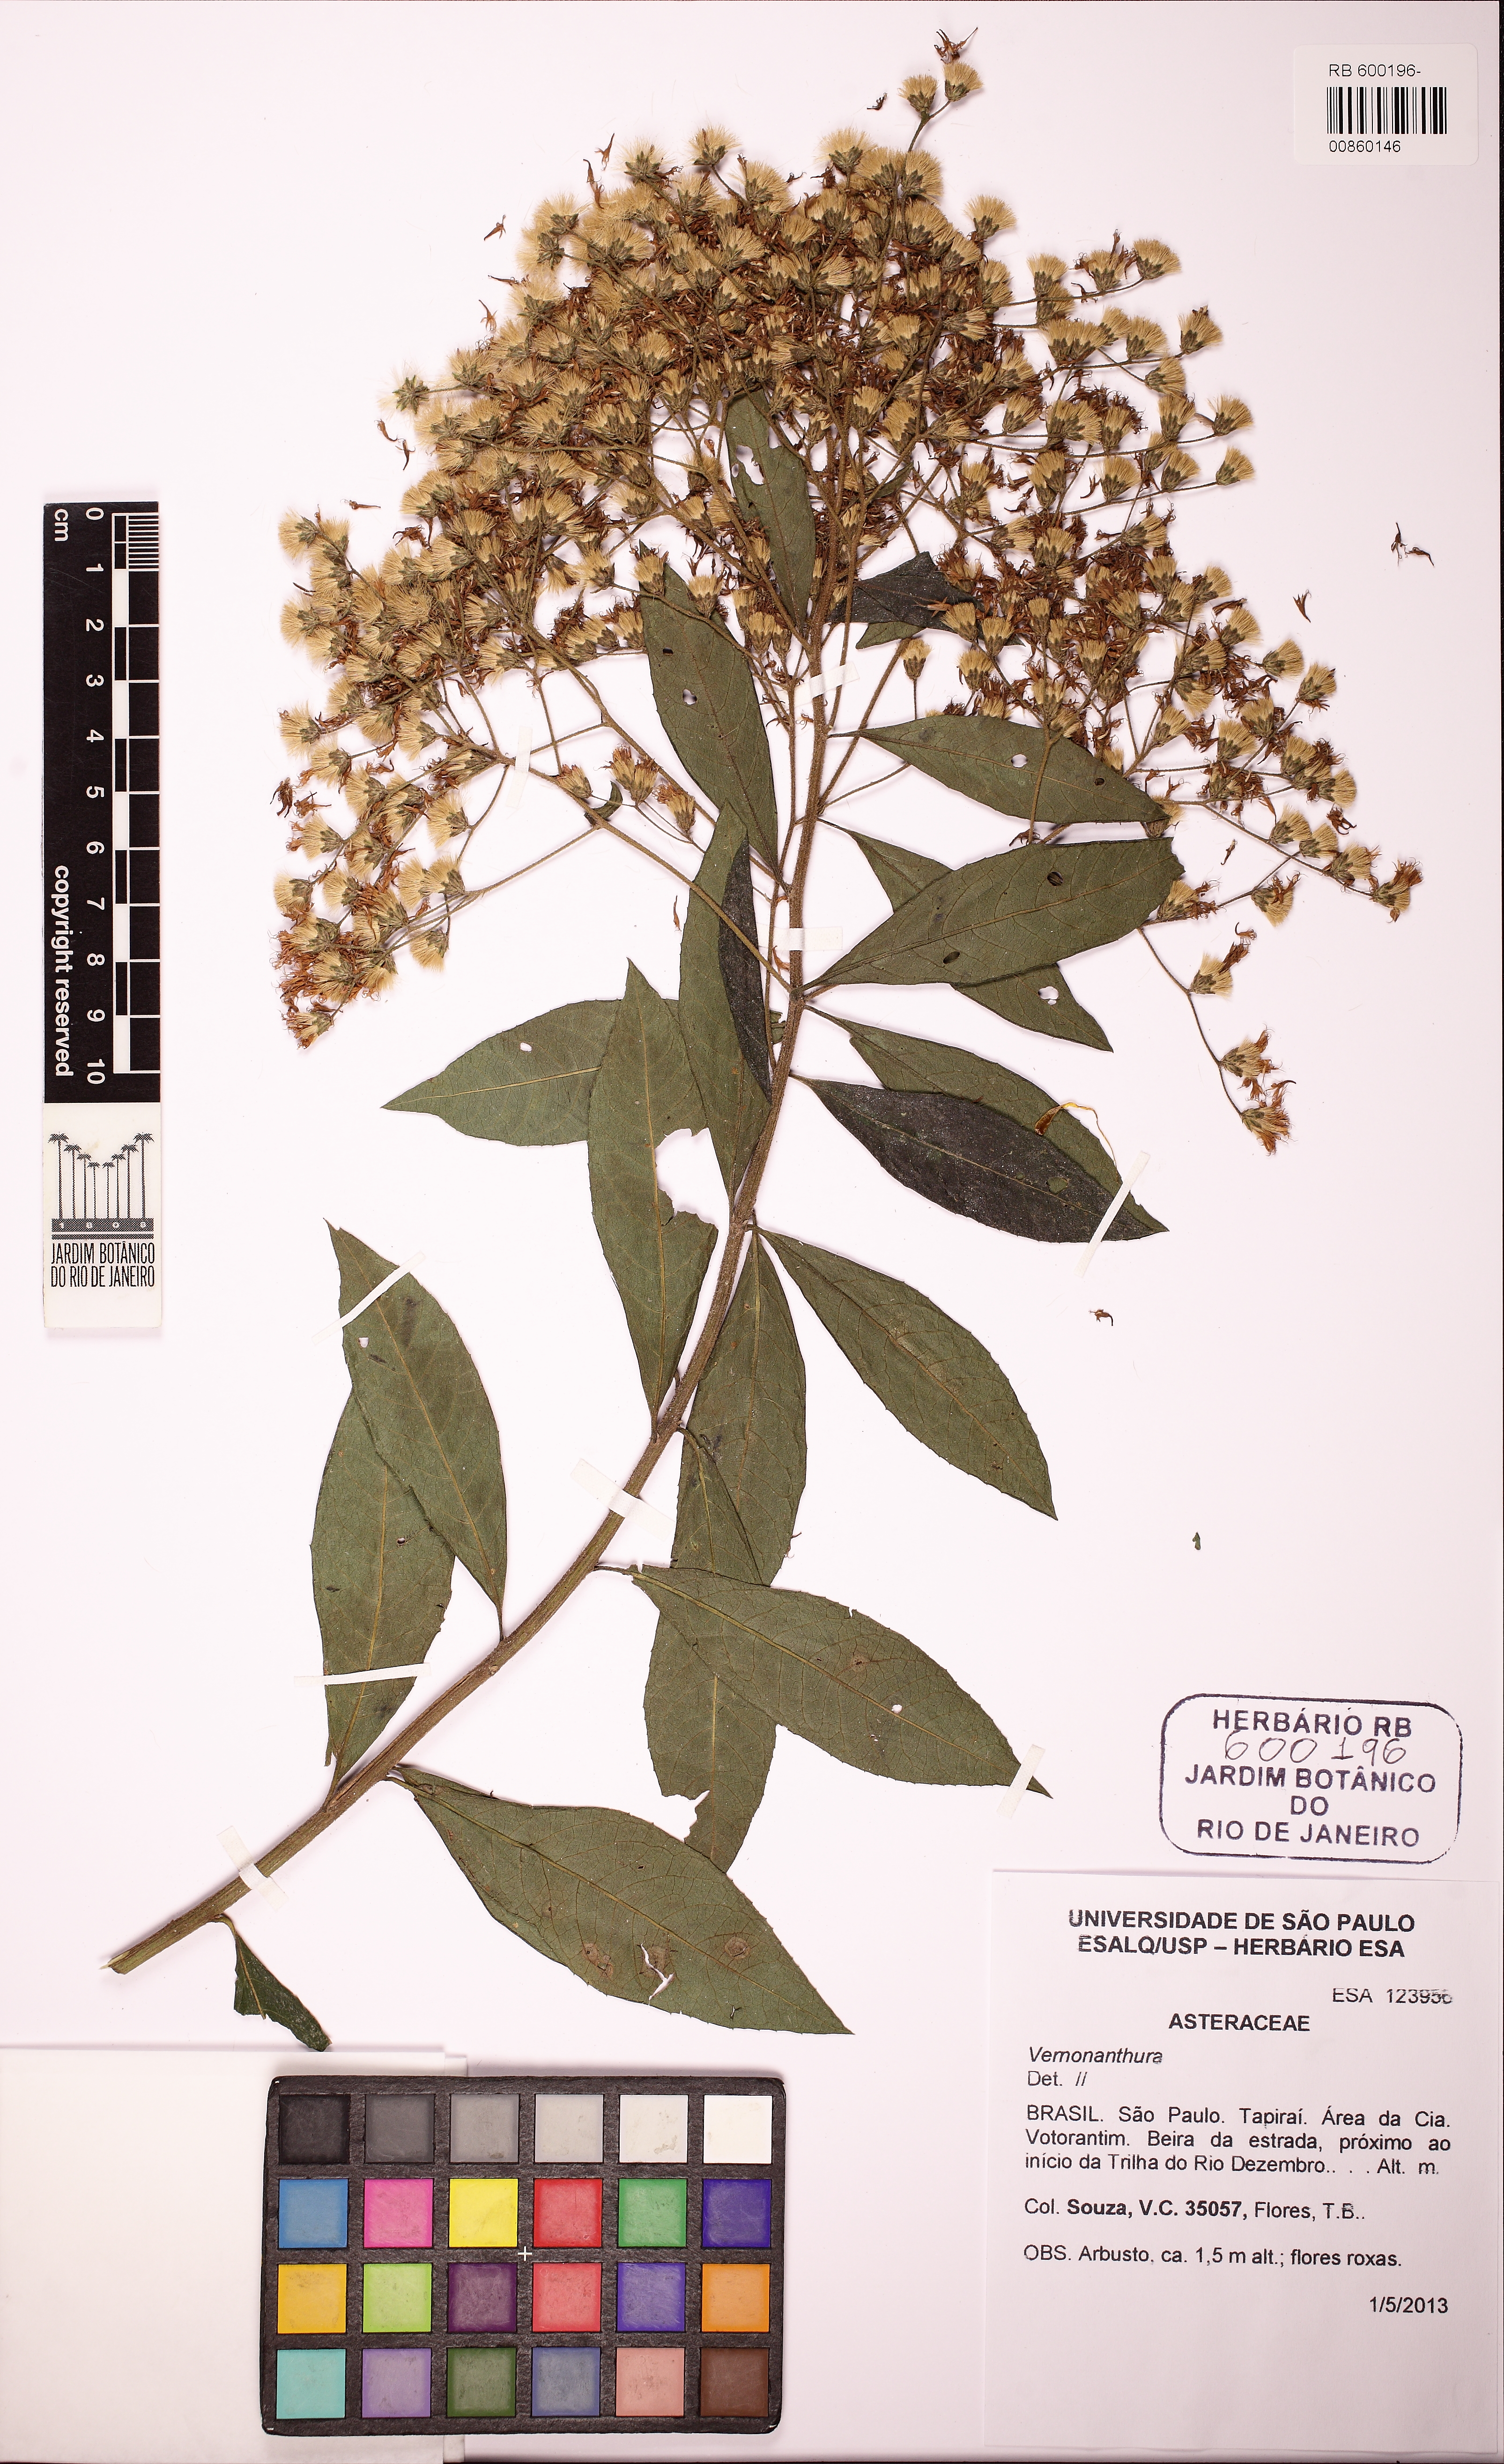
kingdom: Plantae
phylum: Tracheophyta
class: Magnoliopsida
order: Asterales
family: Asteraceae
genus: Vernonanthura
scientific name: Vernonanthura
